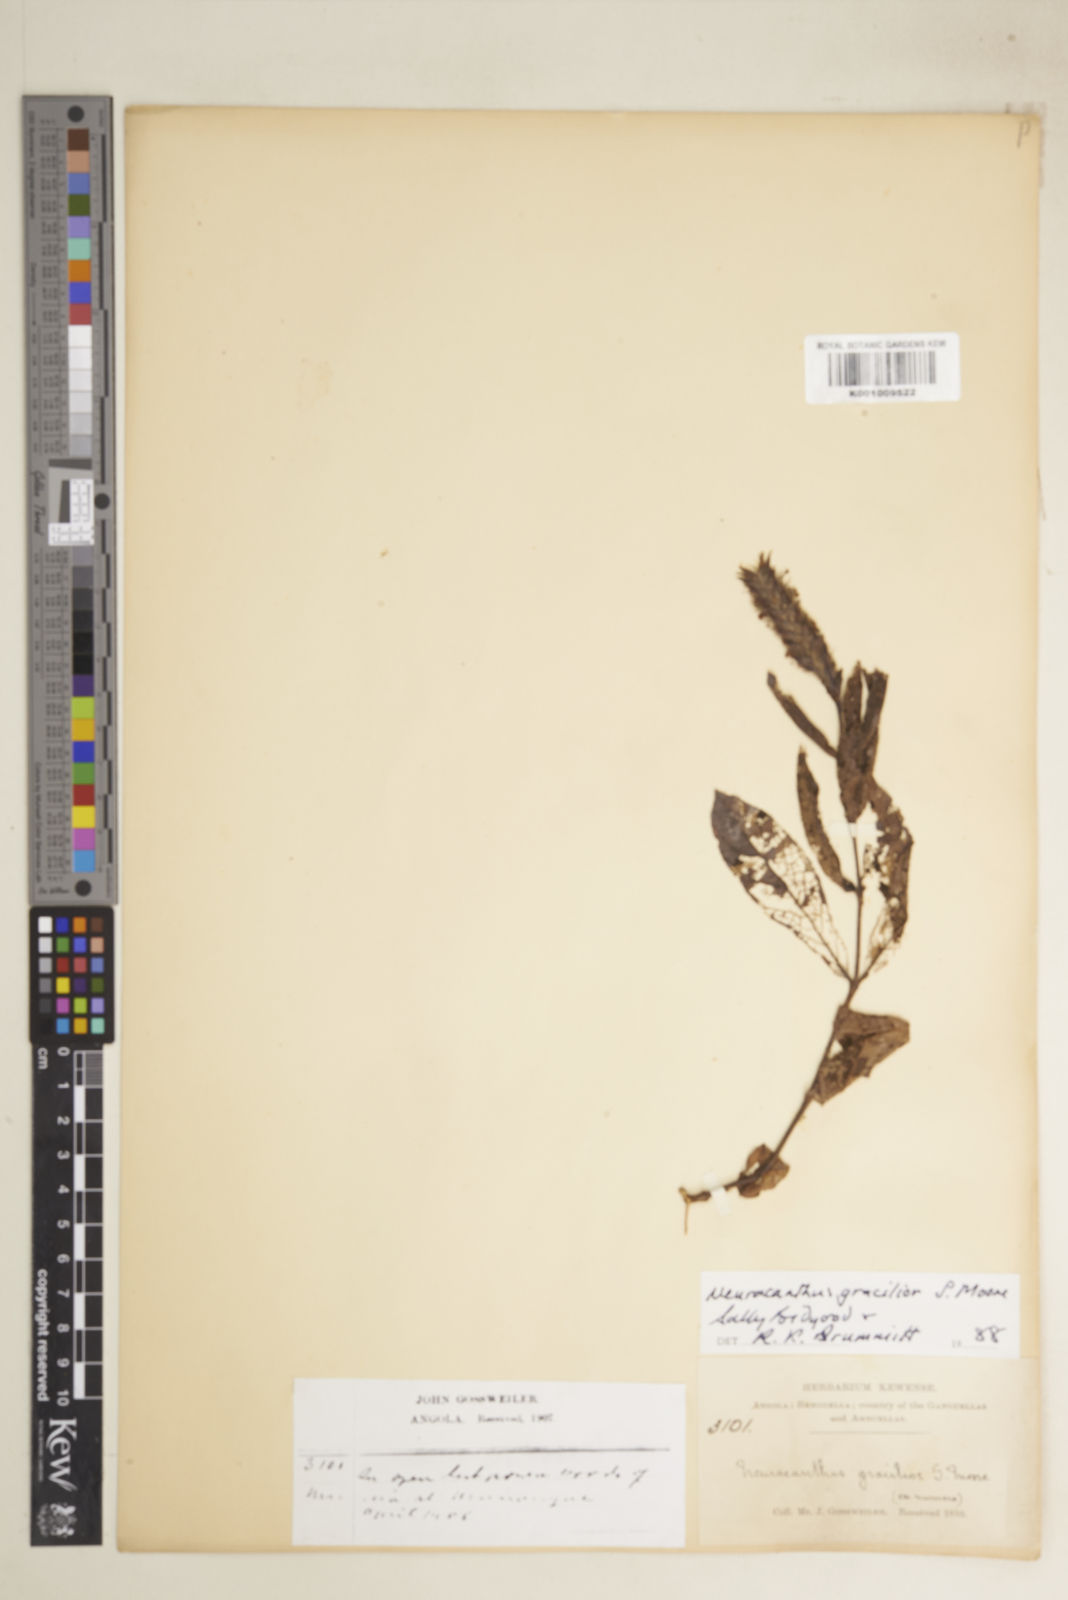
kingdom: Plantae
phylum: Tracheophyta
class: Magnoliopsida
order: Lamiales
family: Acanthaceae
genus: Neuracanthus
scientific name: Neuracanthus gracilior
